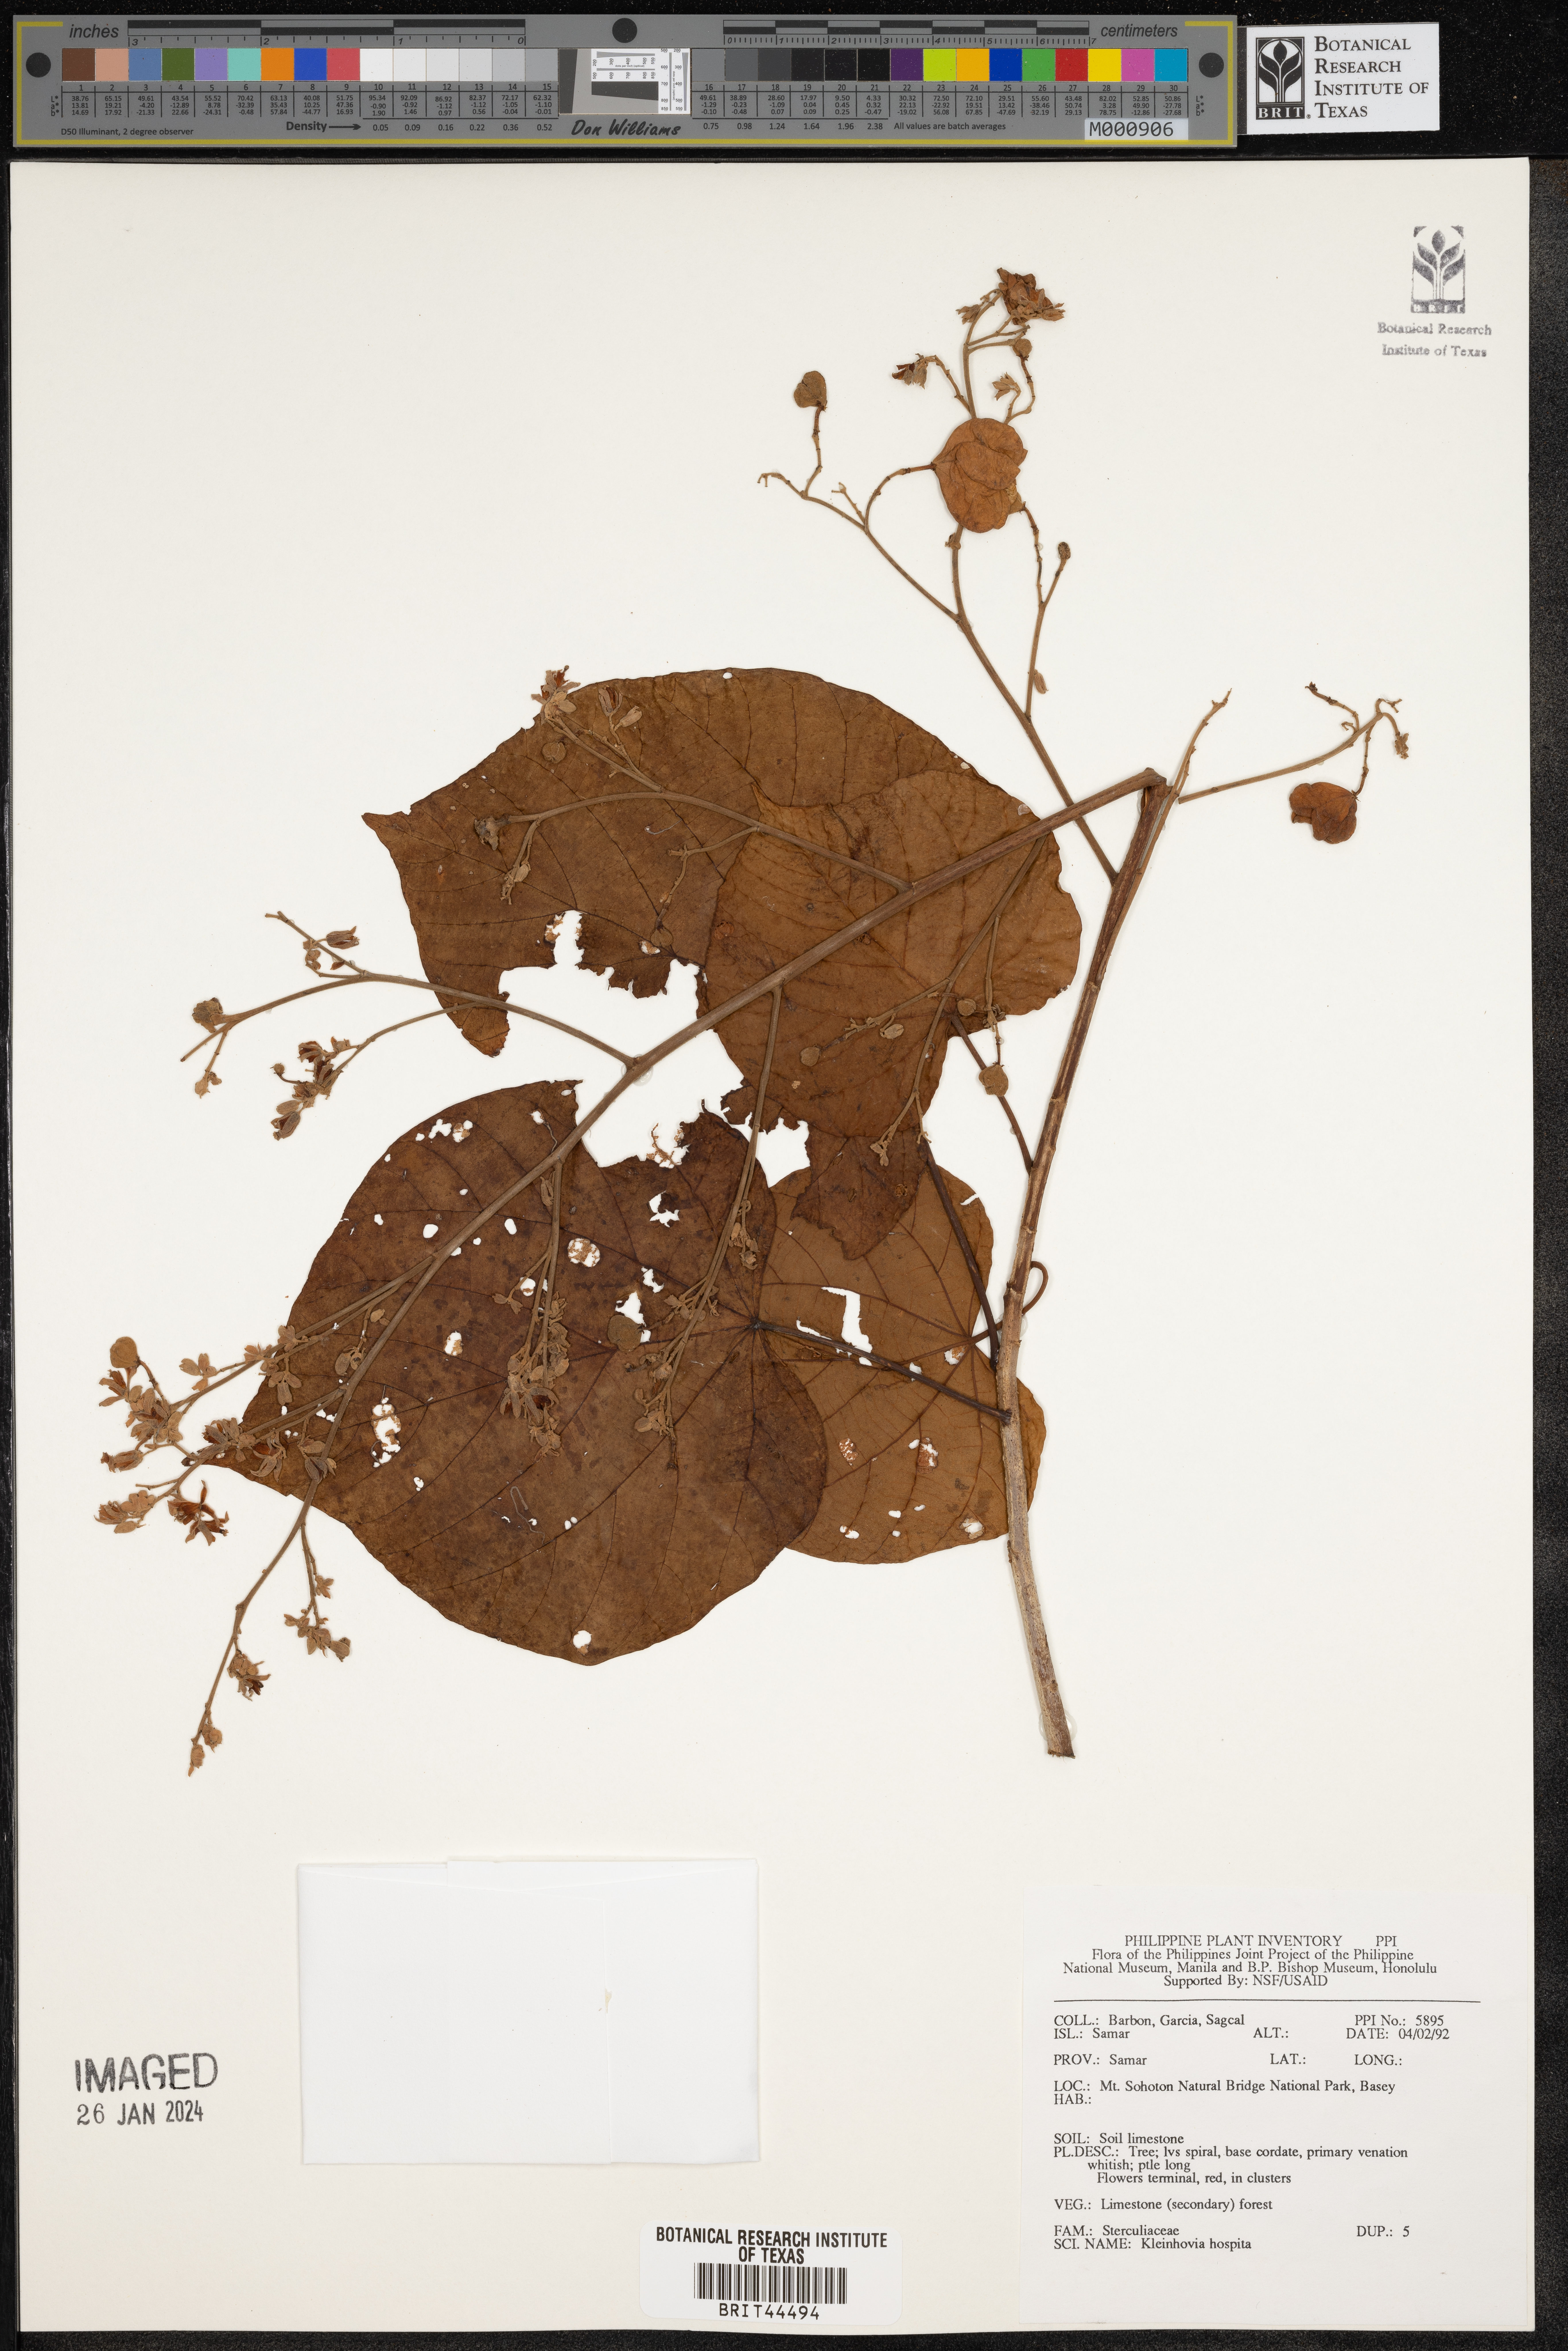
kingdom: Plantae
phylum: Tracheophyta
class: Magnoliopsida
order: Malvales
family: Malvaceae
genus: Kleinhovia
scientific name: Kleinhovia hospita
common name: Guest-tree
